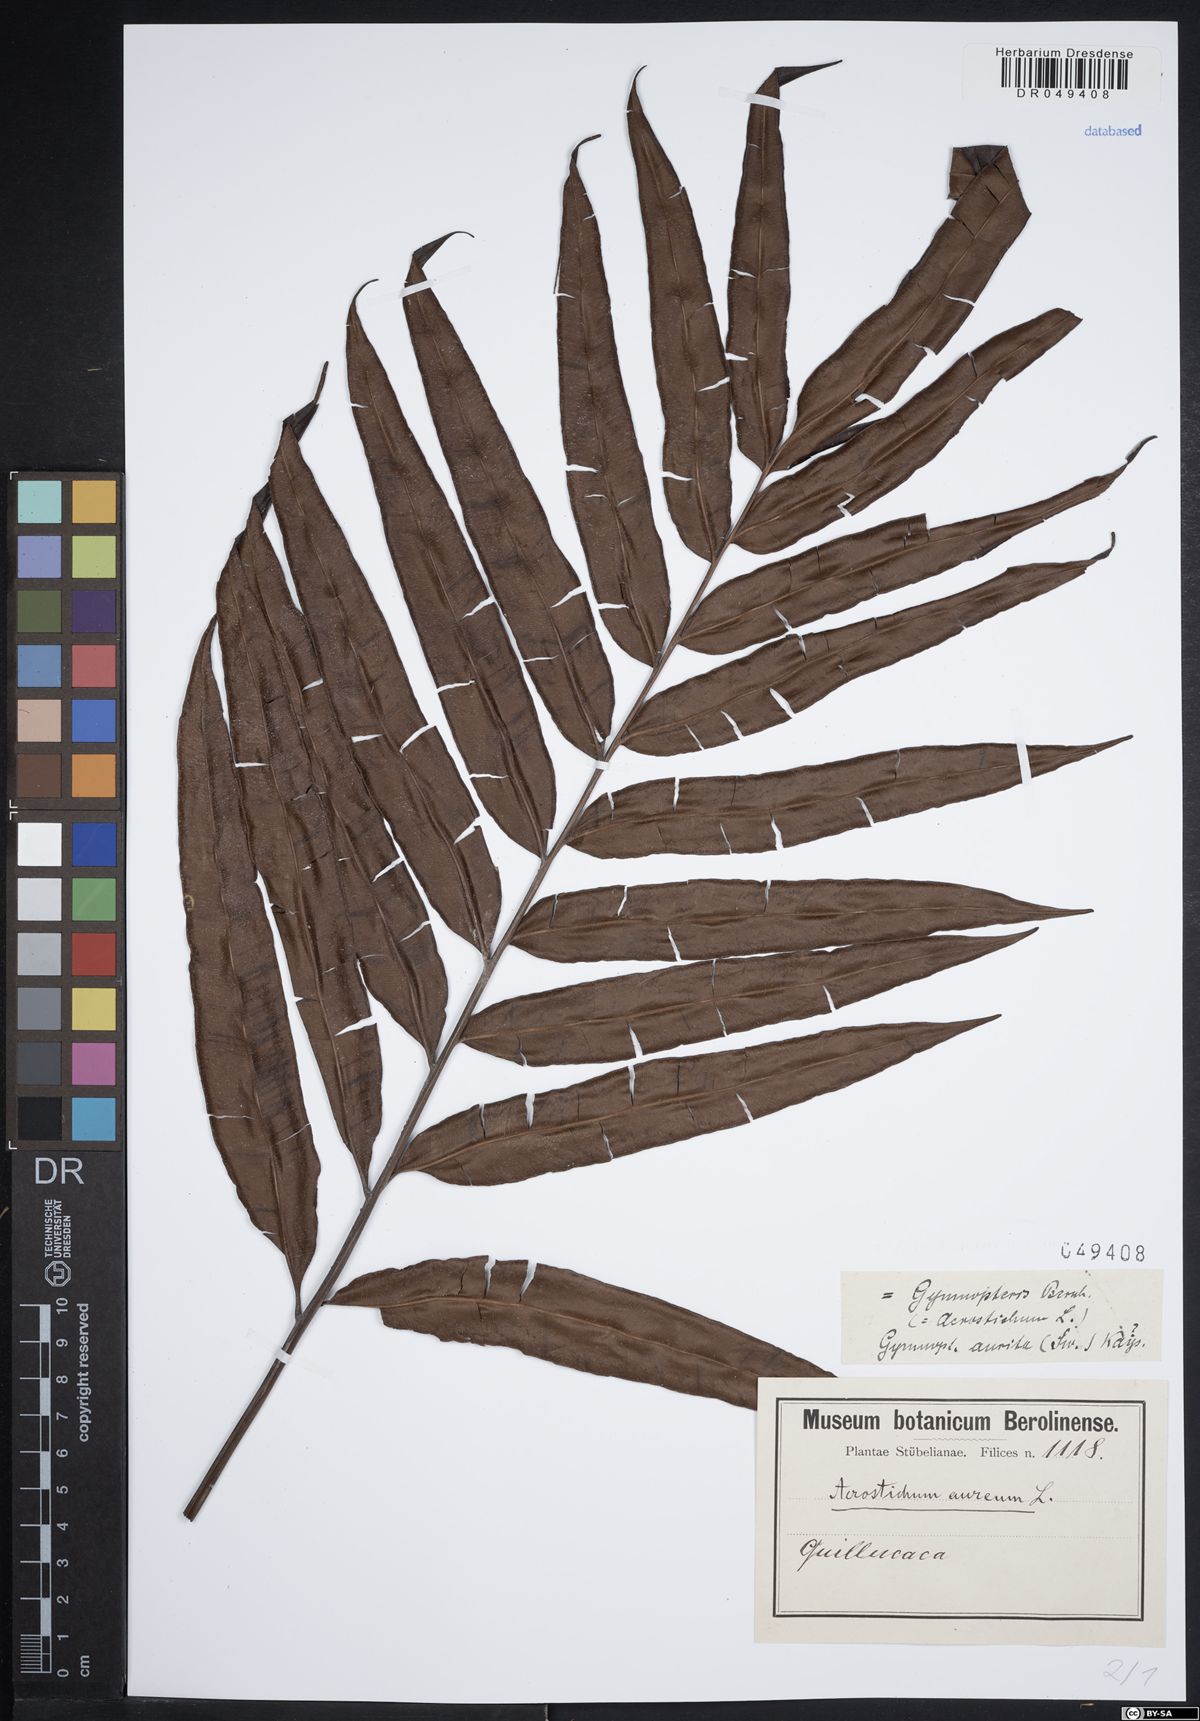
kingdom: Plantae
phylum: Tracheophyta
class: Polypodiopsida
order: Polypodiales
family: Pteridaceae
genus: Acrostichum
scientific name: Acrostichum aureum
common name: Leather fern
